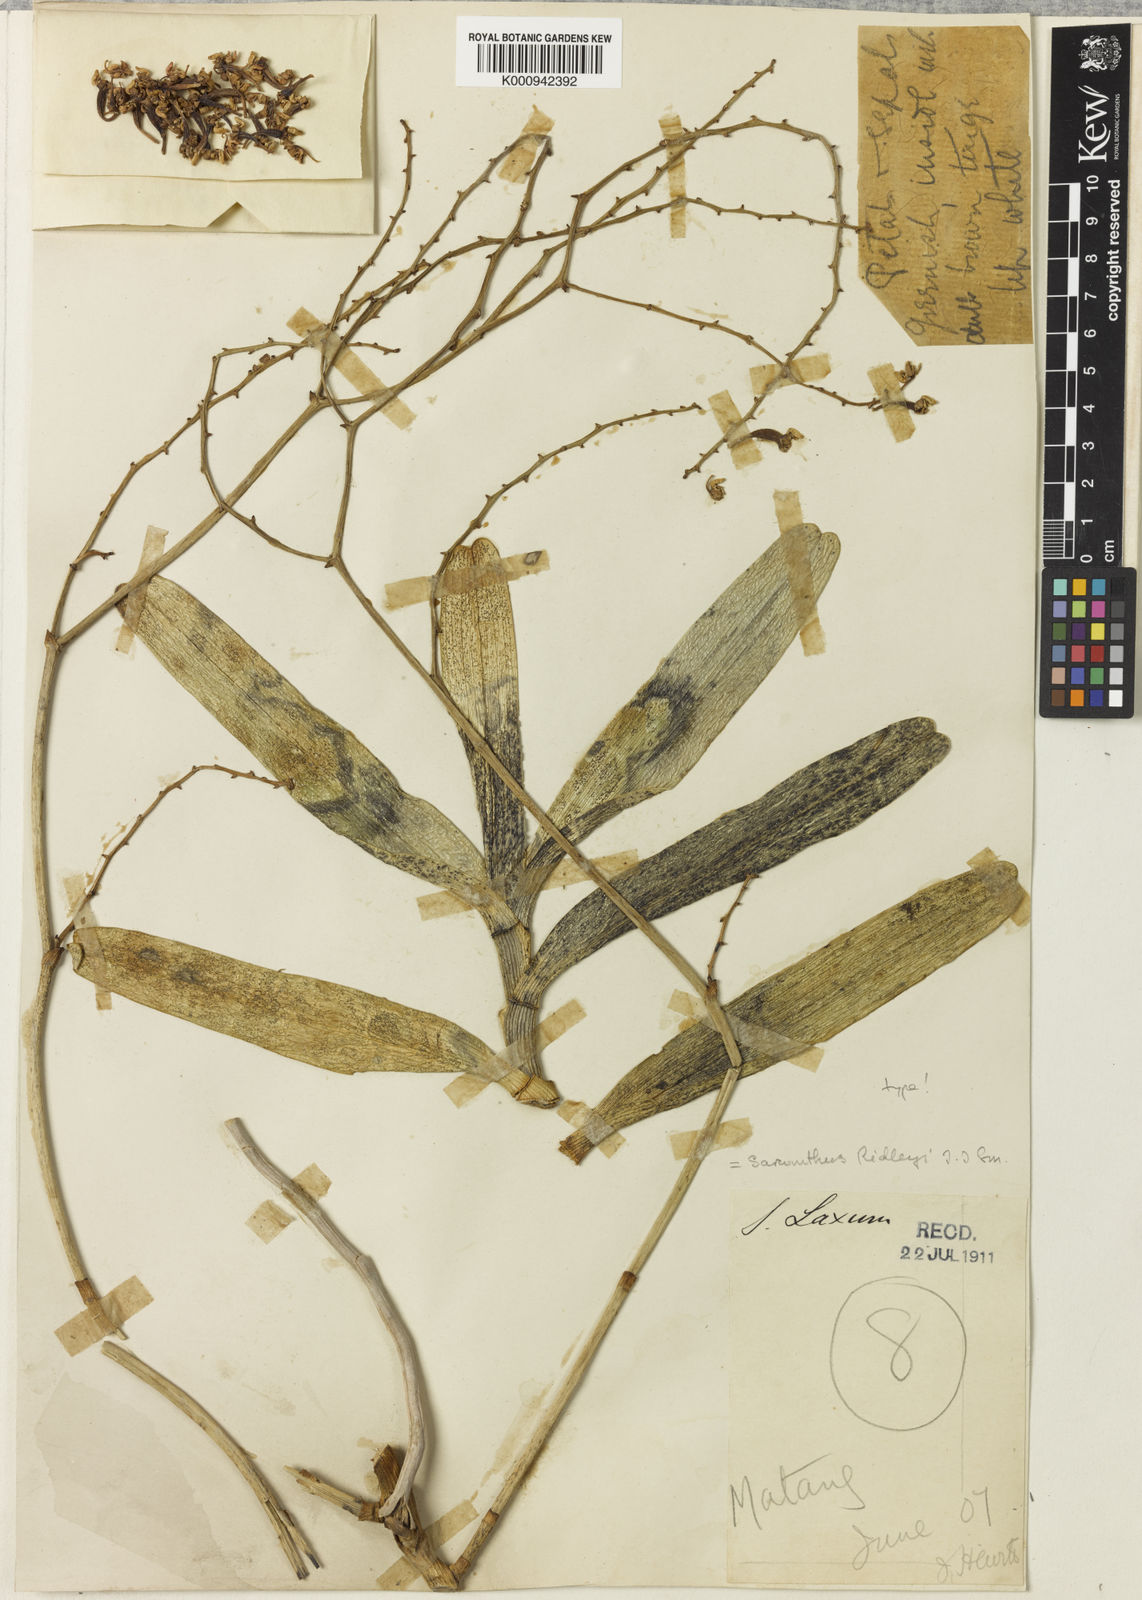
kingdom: Plantae
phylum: Tracheophyta
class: Liliopsida
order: Asparagales
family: Orchidaceae
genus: Cleisostoma
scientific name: Cleisostoma inflatum
